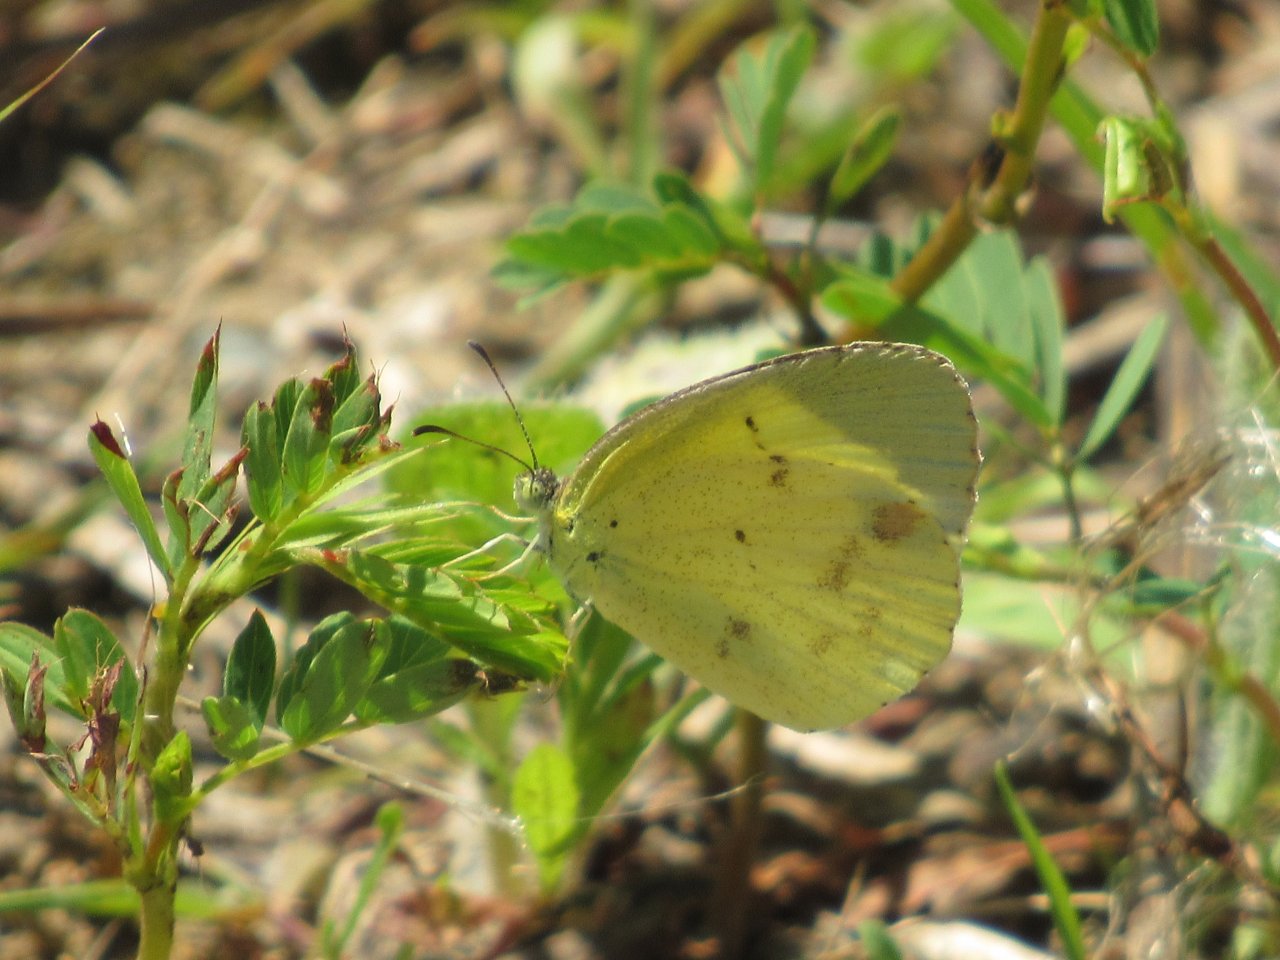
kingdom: Animalia
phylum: Arthropoda
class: Insecta
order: Lepidoptera
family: Pieridae
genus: Pyrisitia
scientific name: Pyrisitia lisa
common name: Little Yellow
